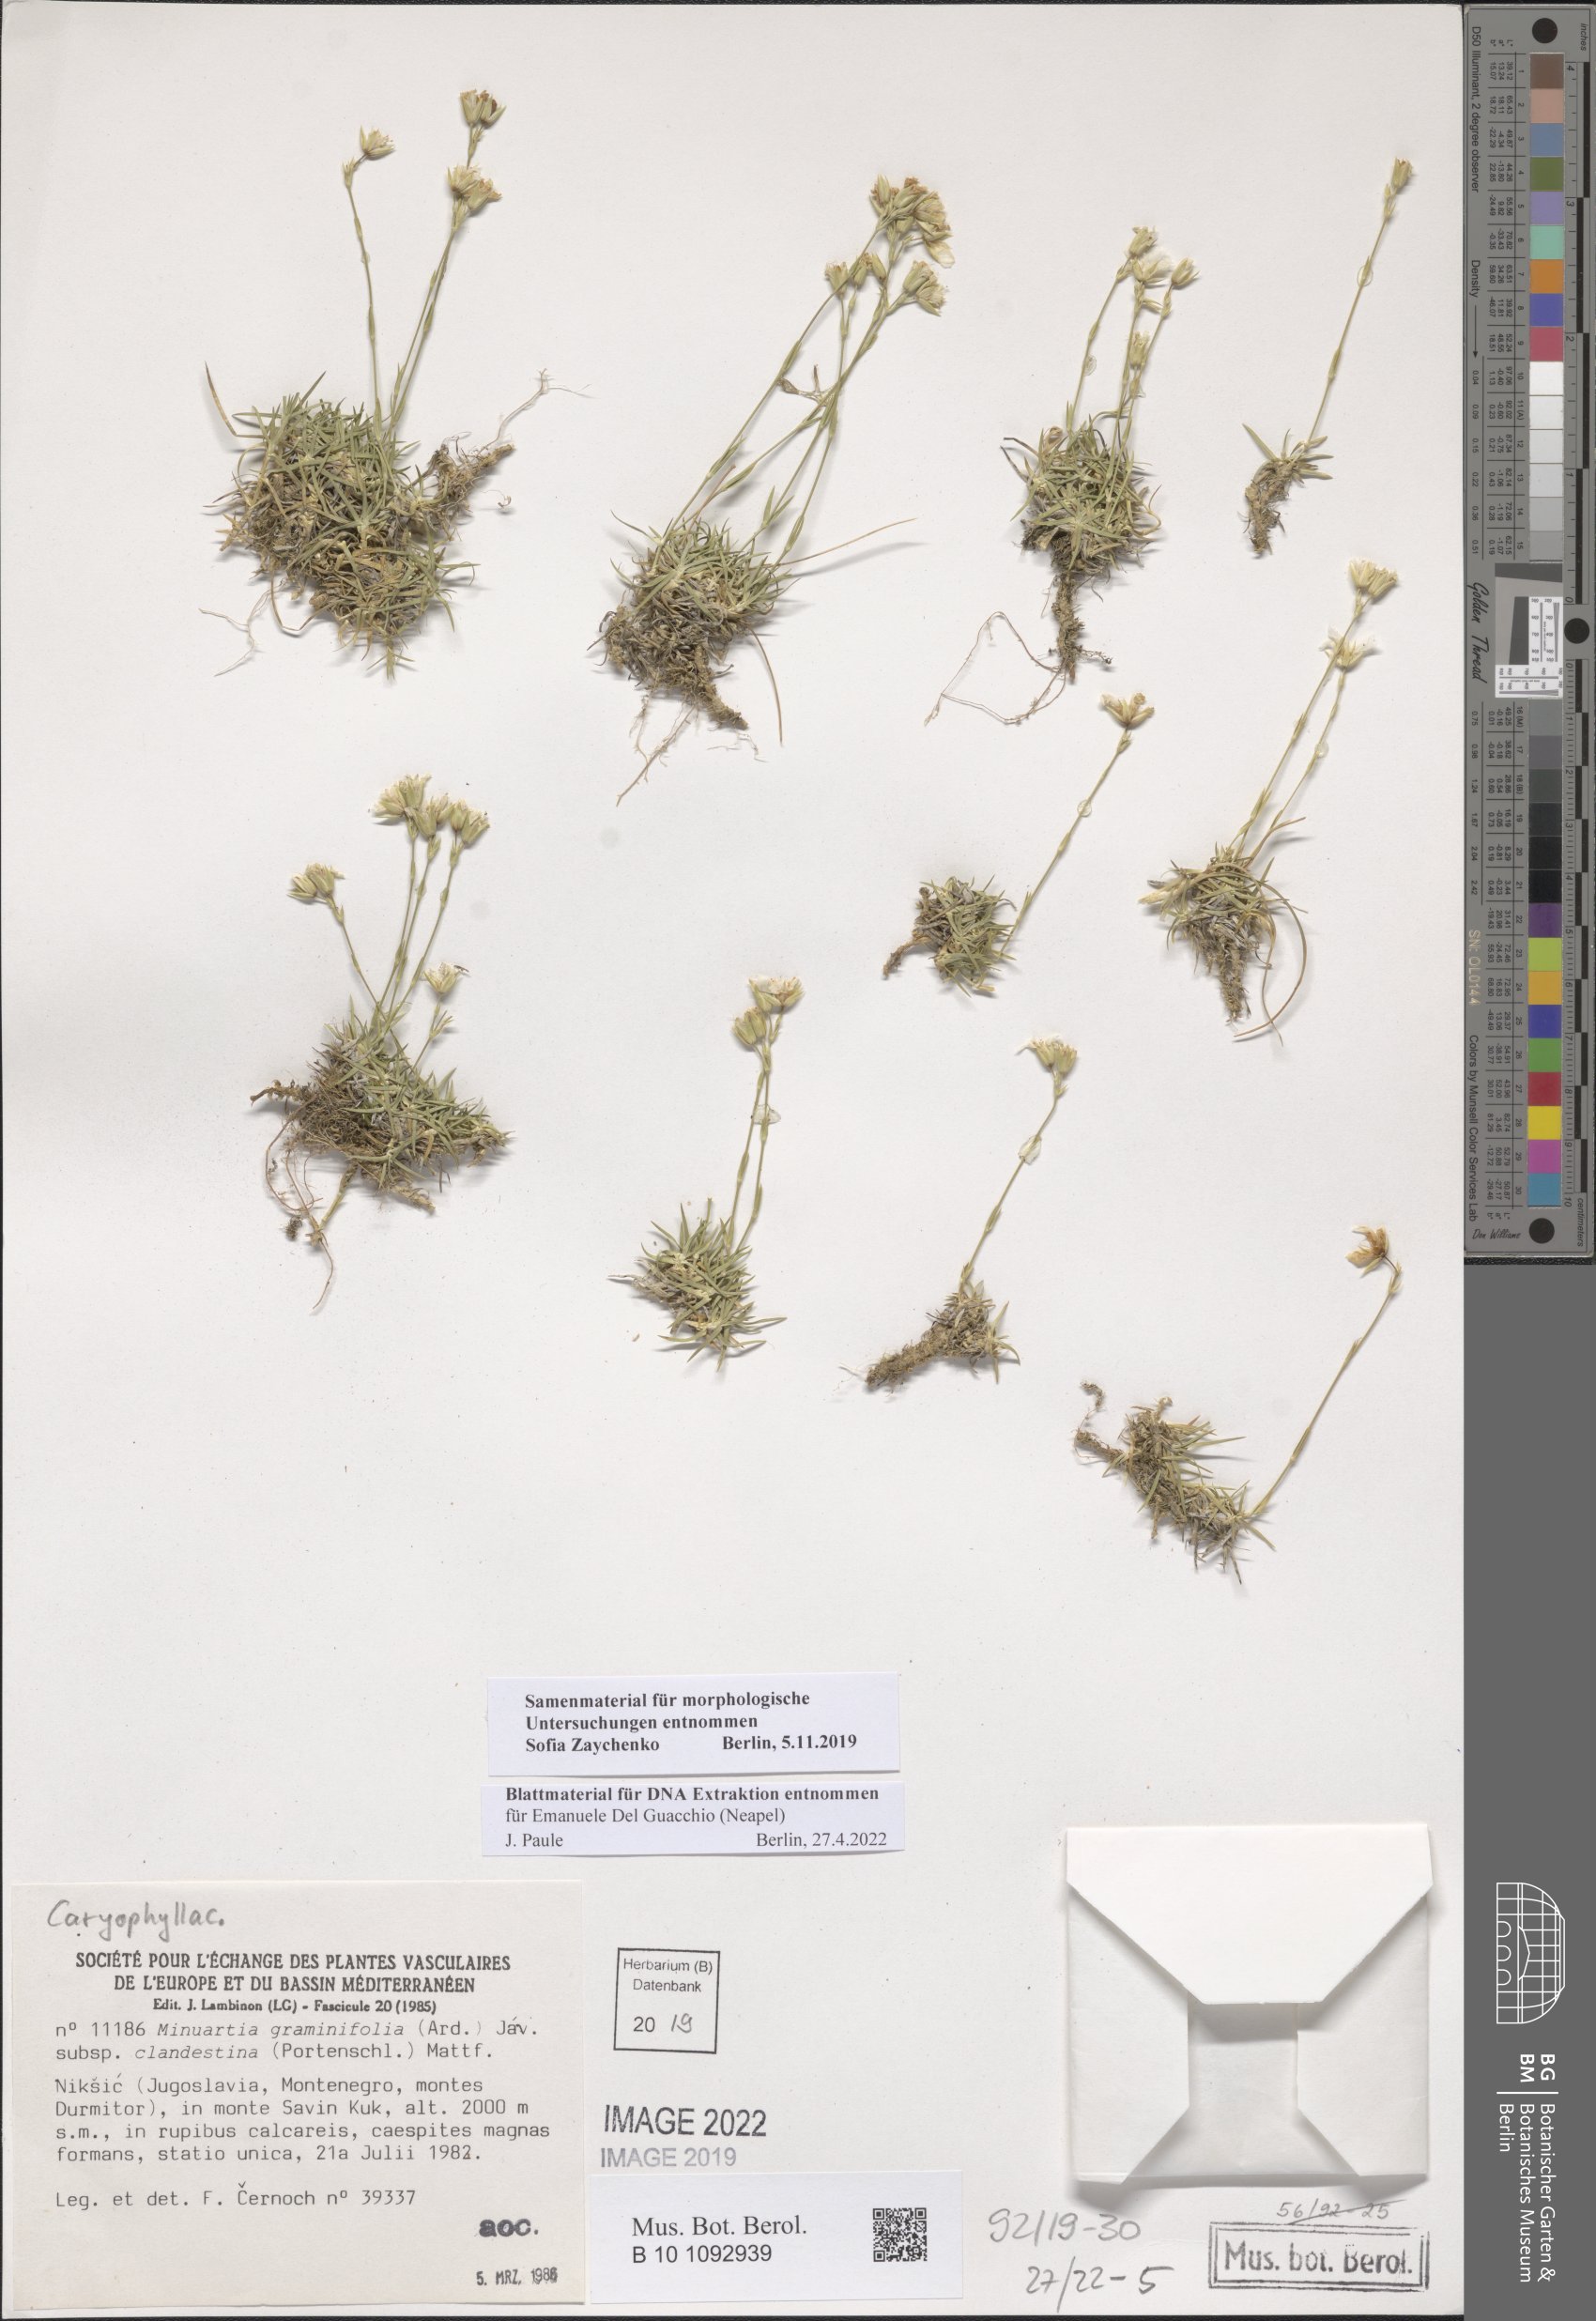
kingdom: Plantae
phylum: Tracheophyta
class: Magnoliopsida
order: Caryophyllales
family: Caryophyllaceae
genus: Mcneillia
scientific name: Mcneillia graminifolia
